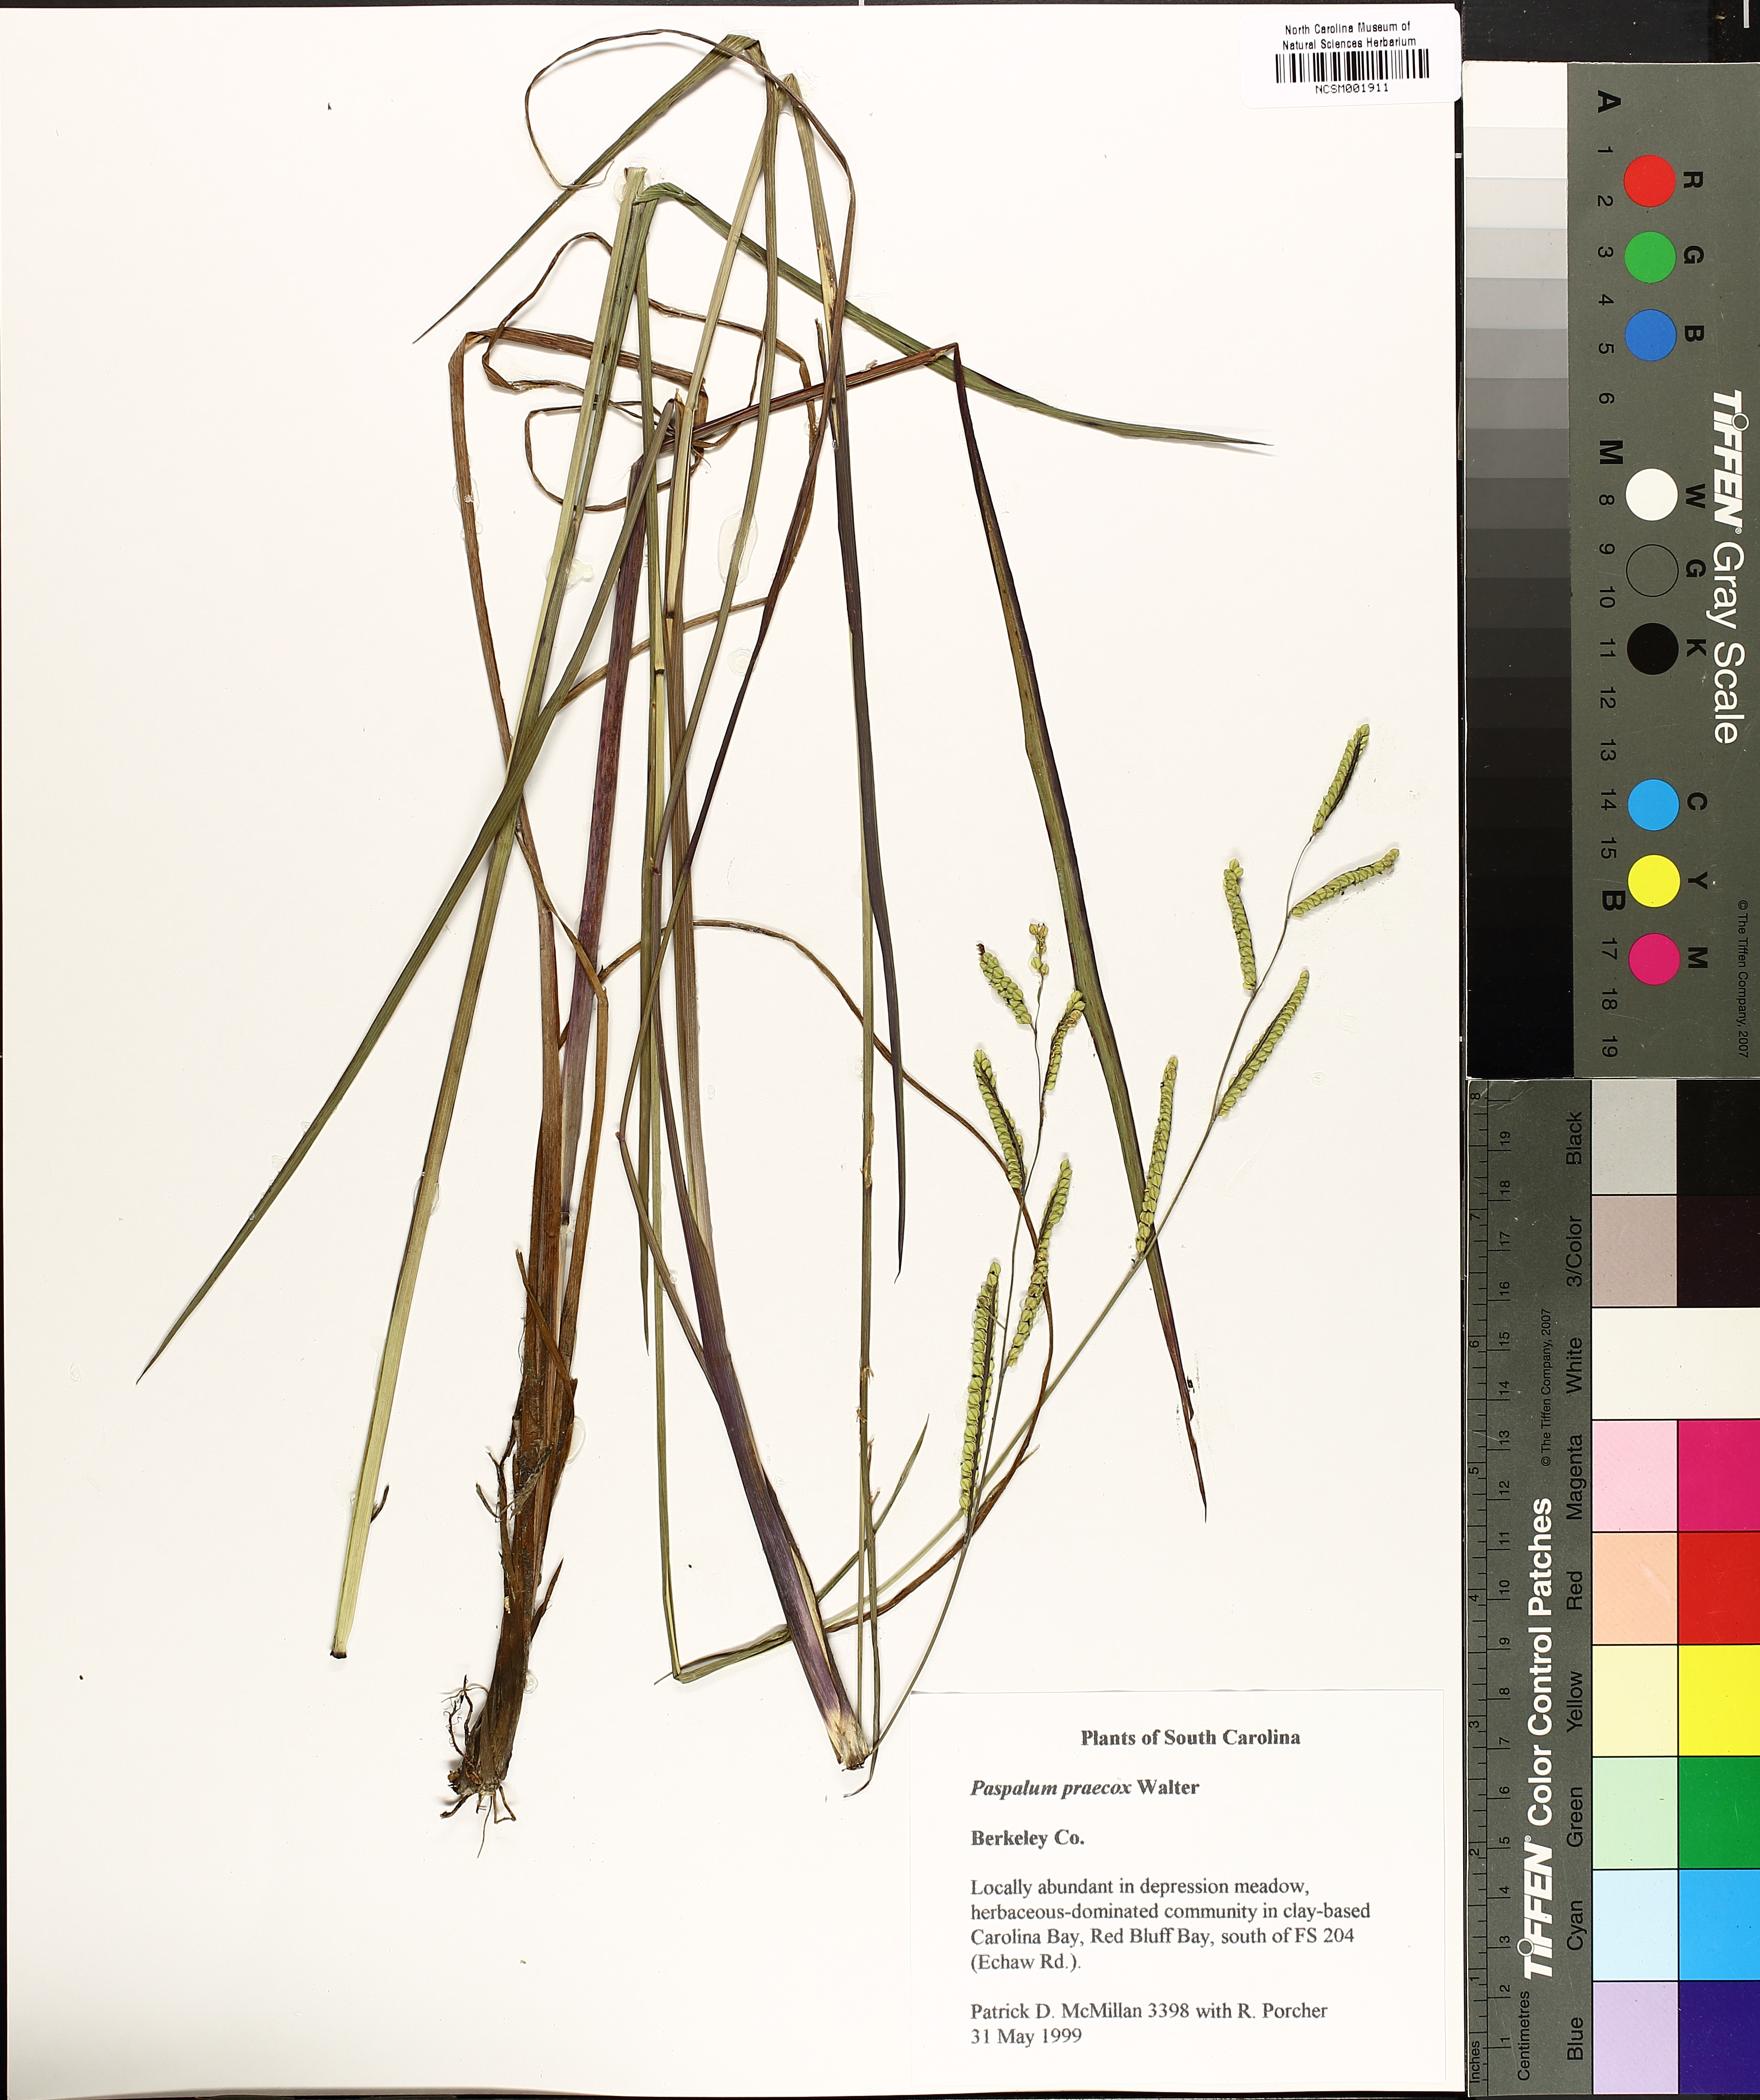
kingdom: Plantae
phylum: Tracheophyta
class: Liliopsida
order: Poales
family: Poaceae
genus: Paspalum
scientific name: Paspalum praecox
